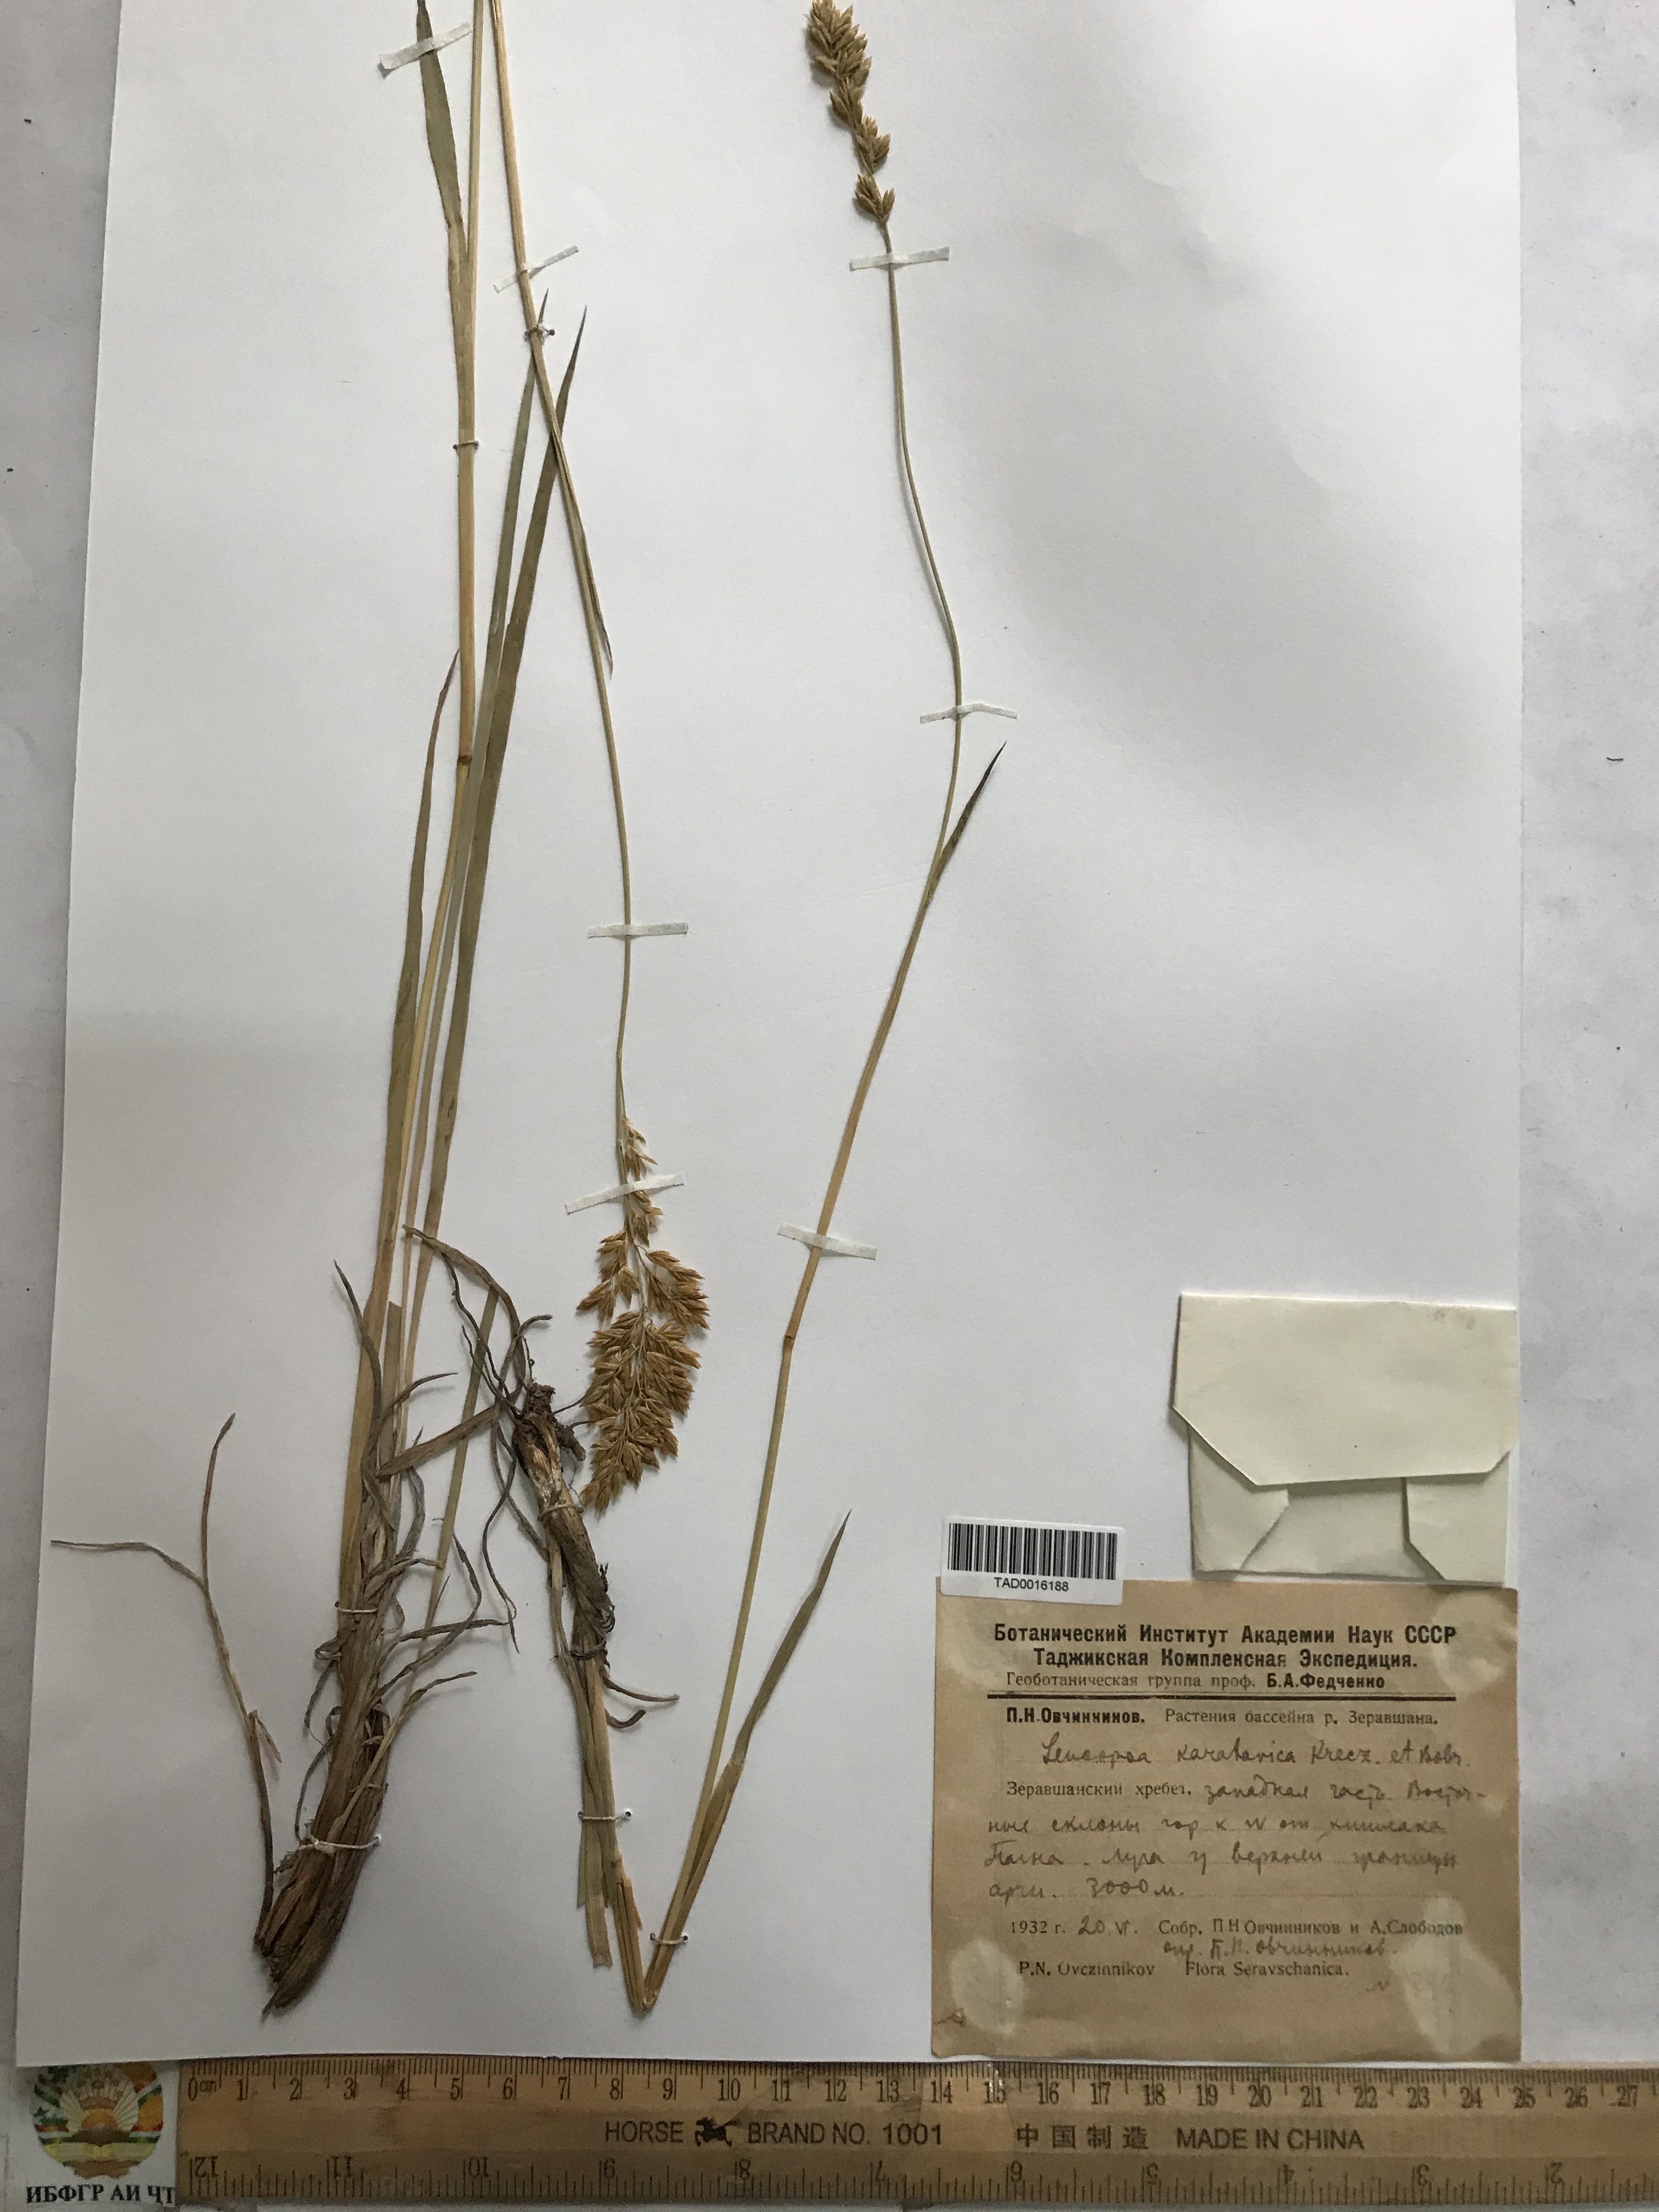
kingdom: Plantae
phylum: Tracheophyta
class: Liliopsida
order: Poales
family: Poaceae
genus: Festuca
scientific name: Festuca karatavica
